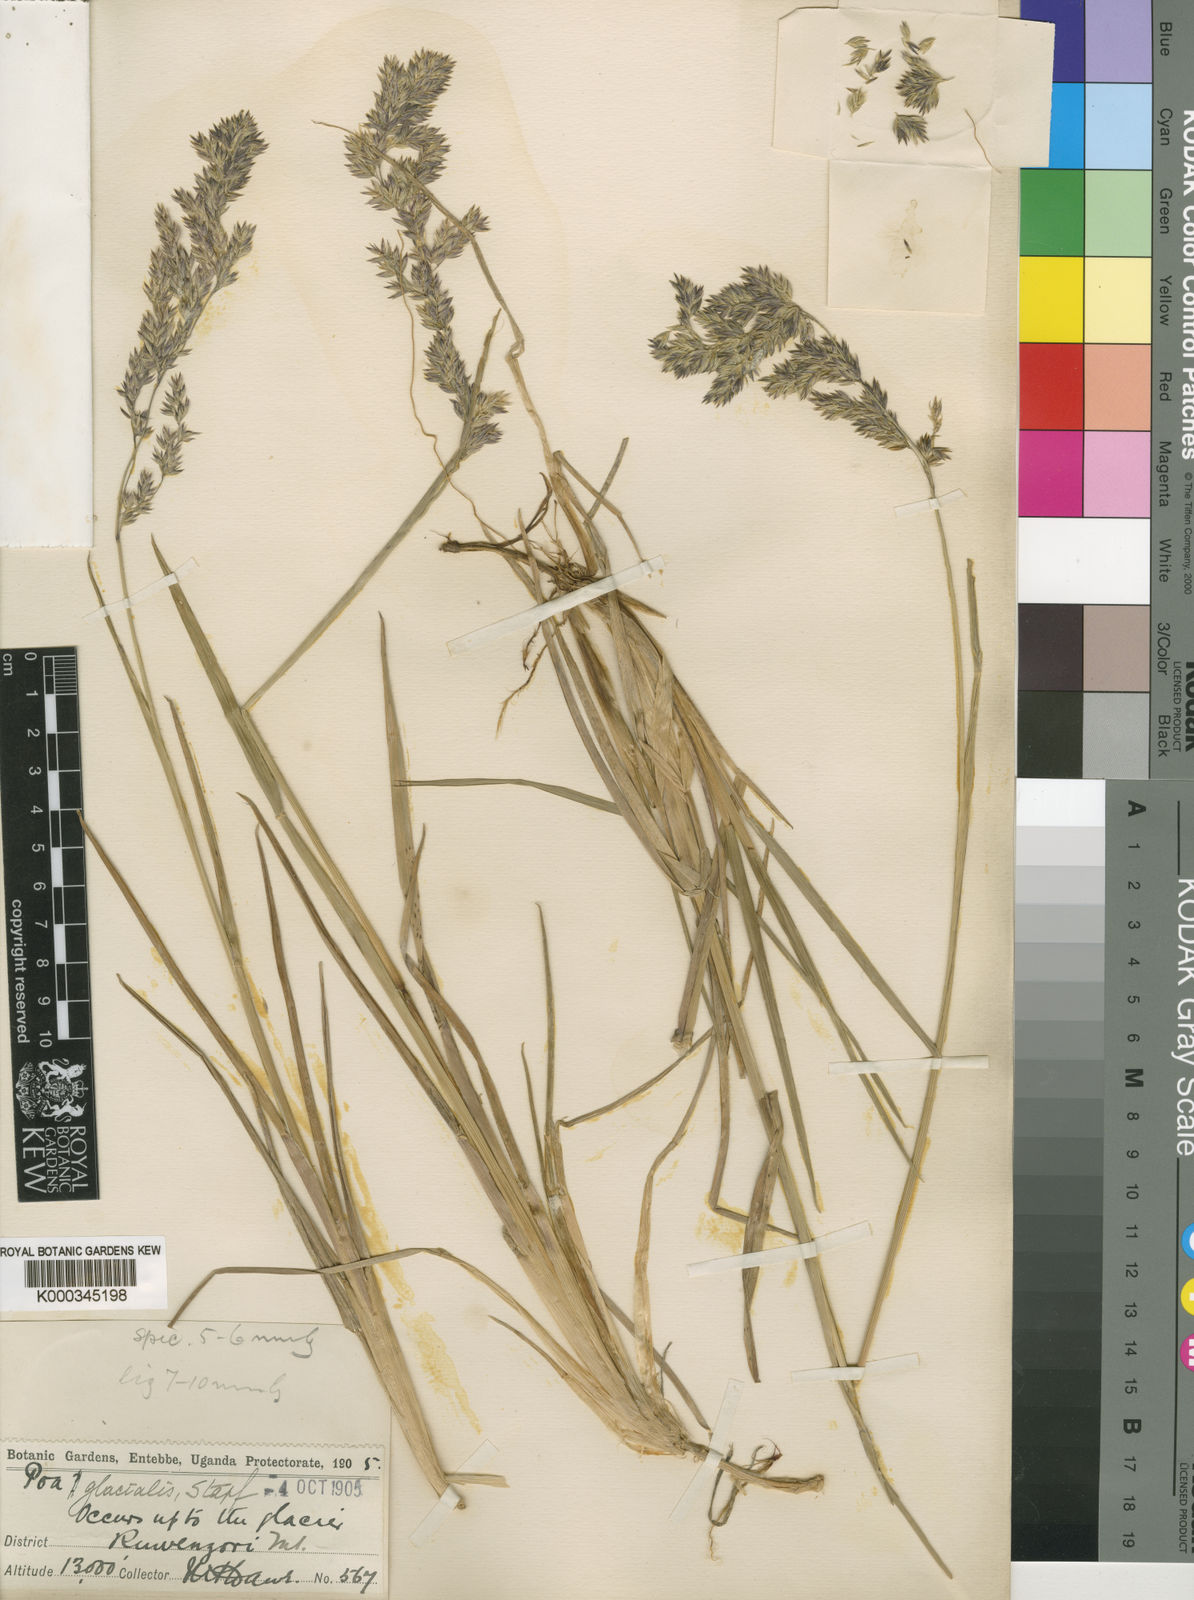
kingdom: Plantae
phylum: Tracheophyta
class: Liliopsida
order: Poales
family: Poaceae
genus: Poa
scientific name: Poa ruwenzoriensis
